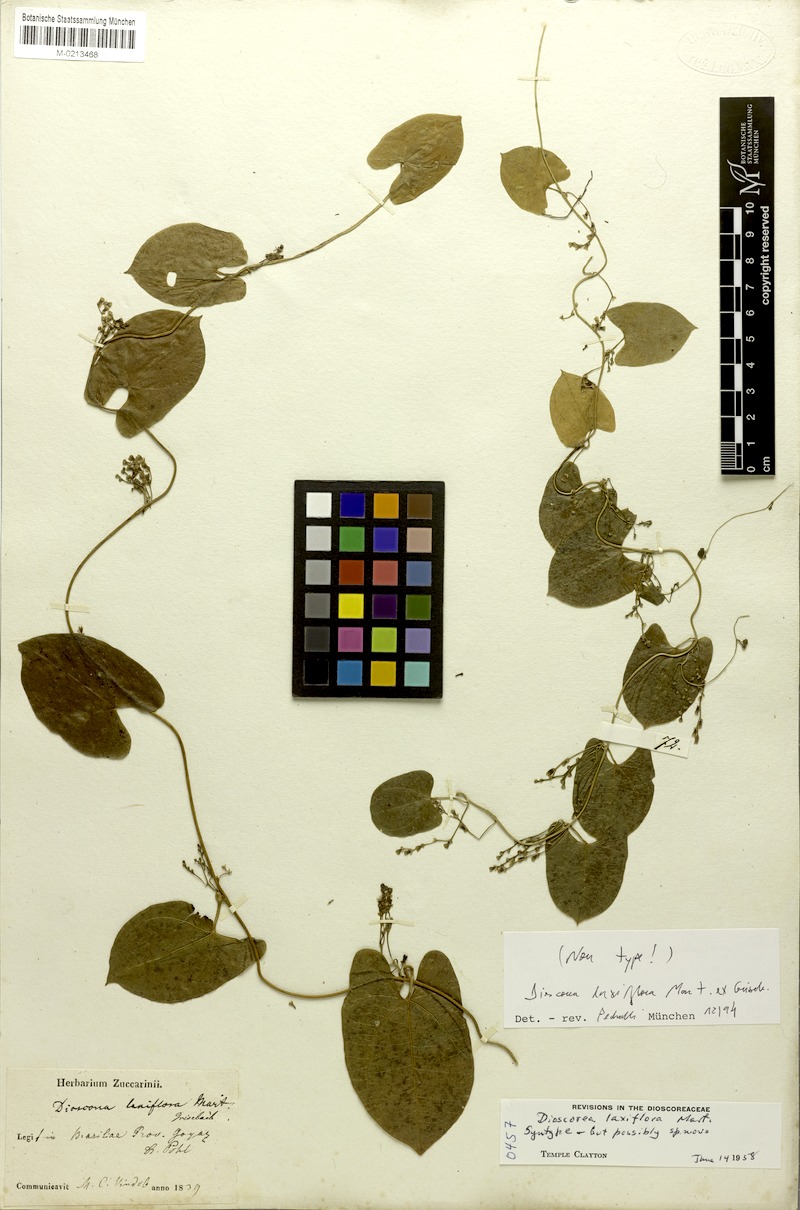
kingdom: Plantae
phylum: Tracheophyta
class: Liliopsida
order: Dioscoreales
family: Dioscoreaceae
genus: Dioscorea
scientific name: Dioscorea laxiflora
